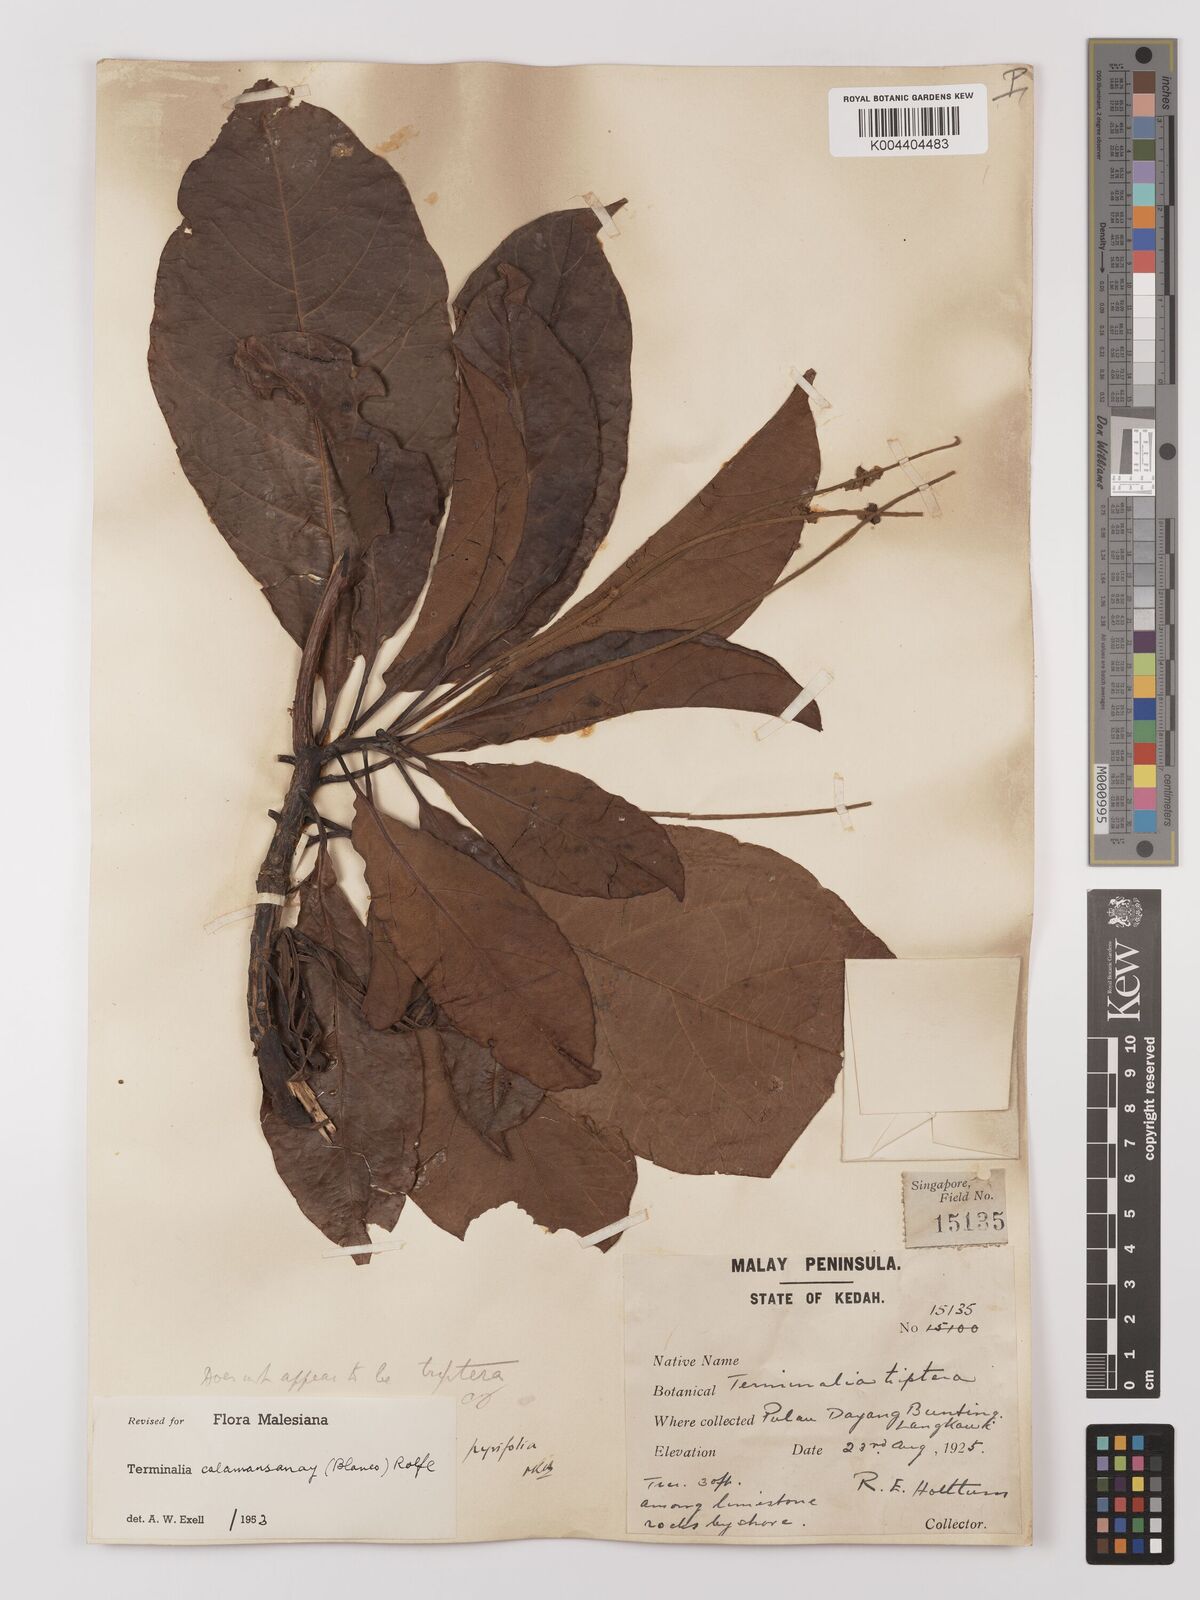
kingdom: Plantae
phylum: Tracheophyta
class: Magnoliopsida
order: Myrtales
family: Combretaceae
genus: Terminalia
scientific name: Terminalia calamansanai
